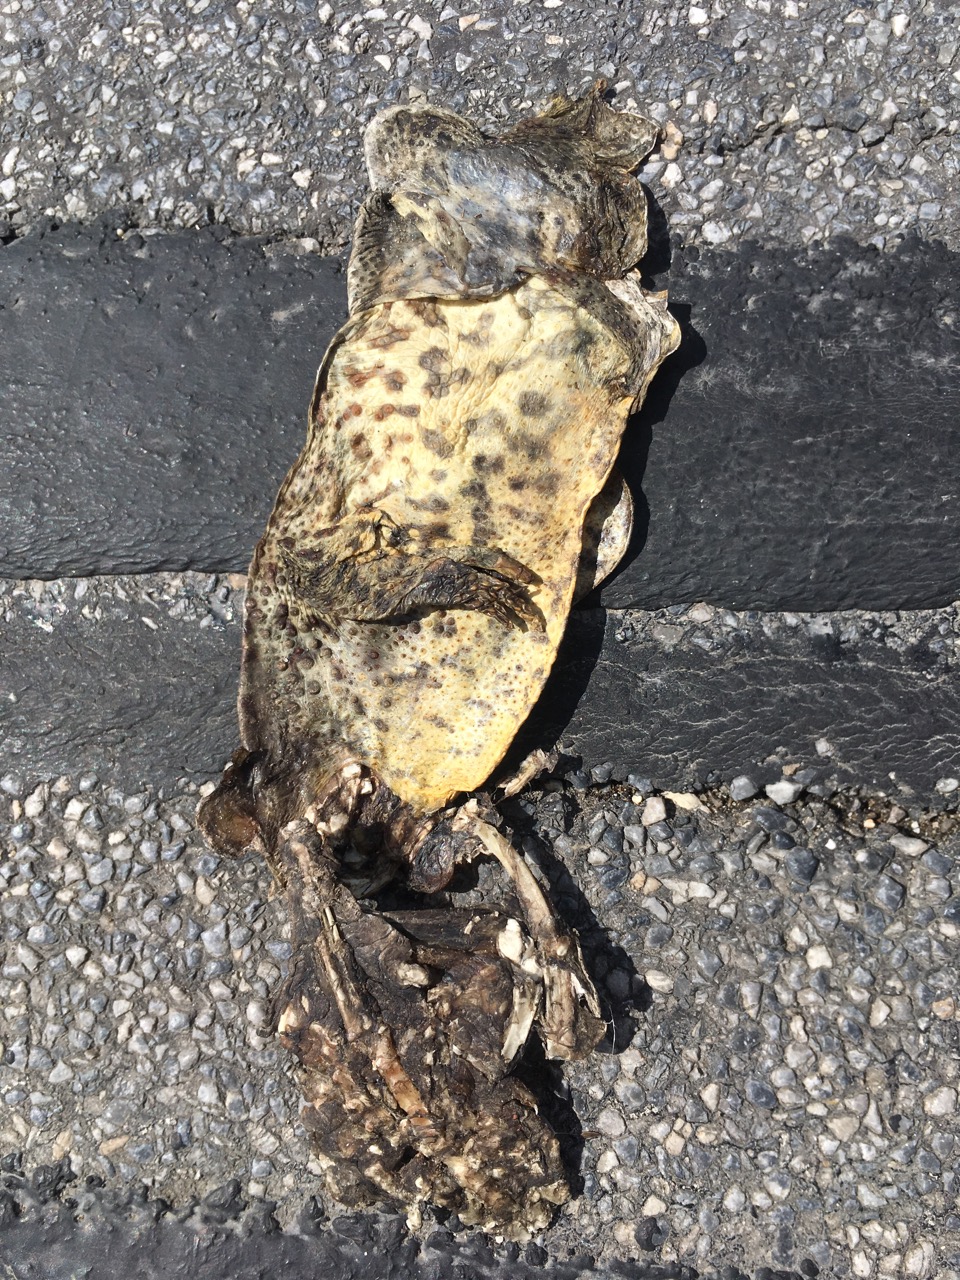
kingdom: Animalia
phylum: Chordata
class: Amphibia
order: Anura
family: Bufonidae
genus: Bufo
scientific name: Bufo bufo
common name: Common toad
